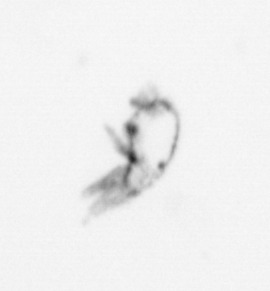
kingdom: Animalia
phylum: Arthropoda
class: Maxillopoda
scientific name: Maxillopoda
